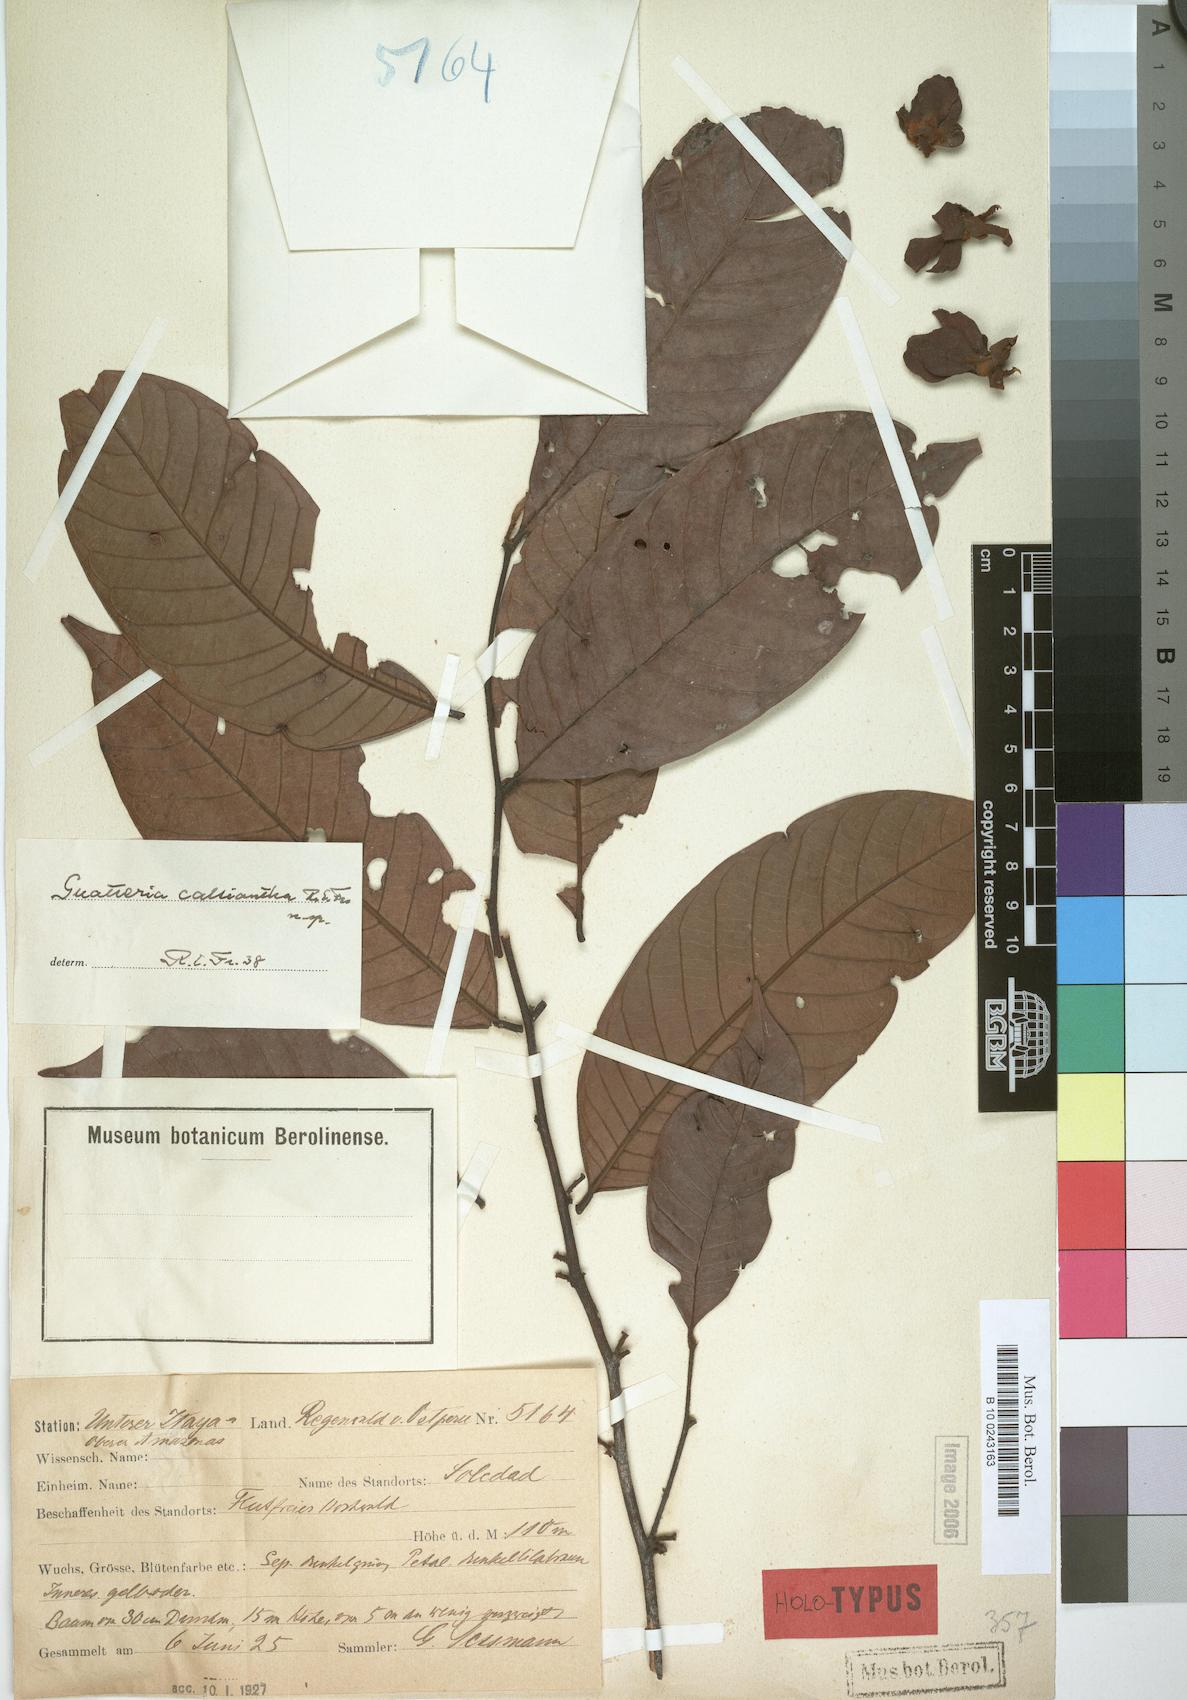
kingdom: Plantae
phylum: Tracheophyta
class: Magnoliopsida
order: Magnoliales
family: Annonaceae
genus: Guatteria
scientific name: Guatteria punctata
